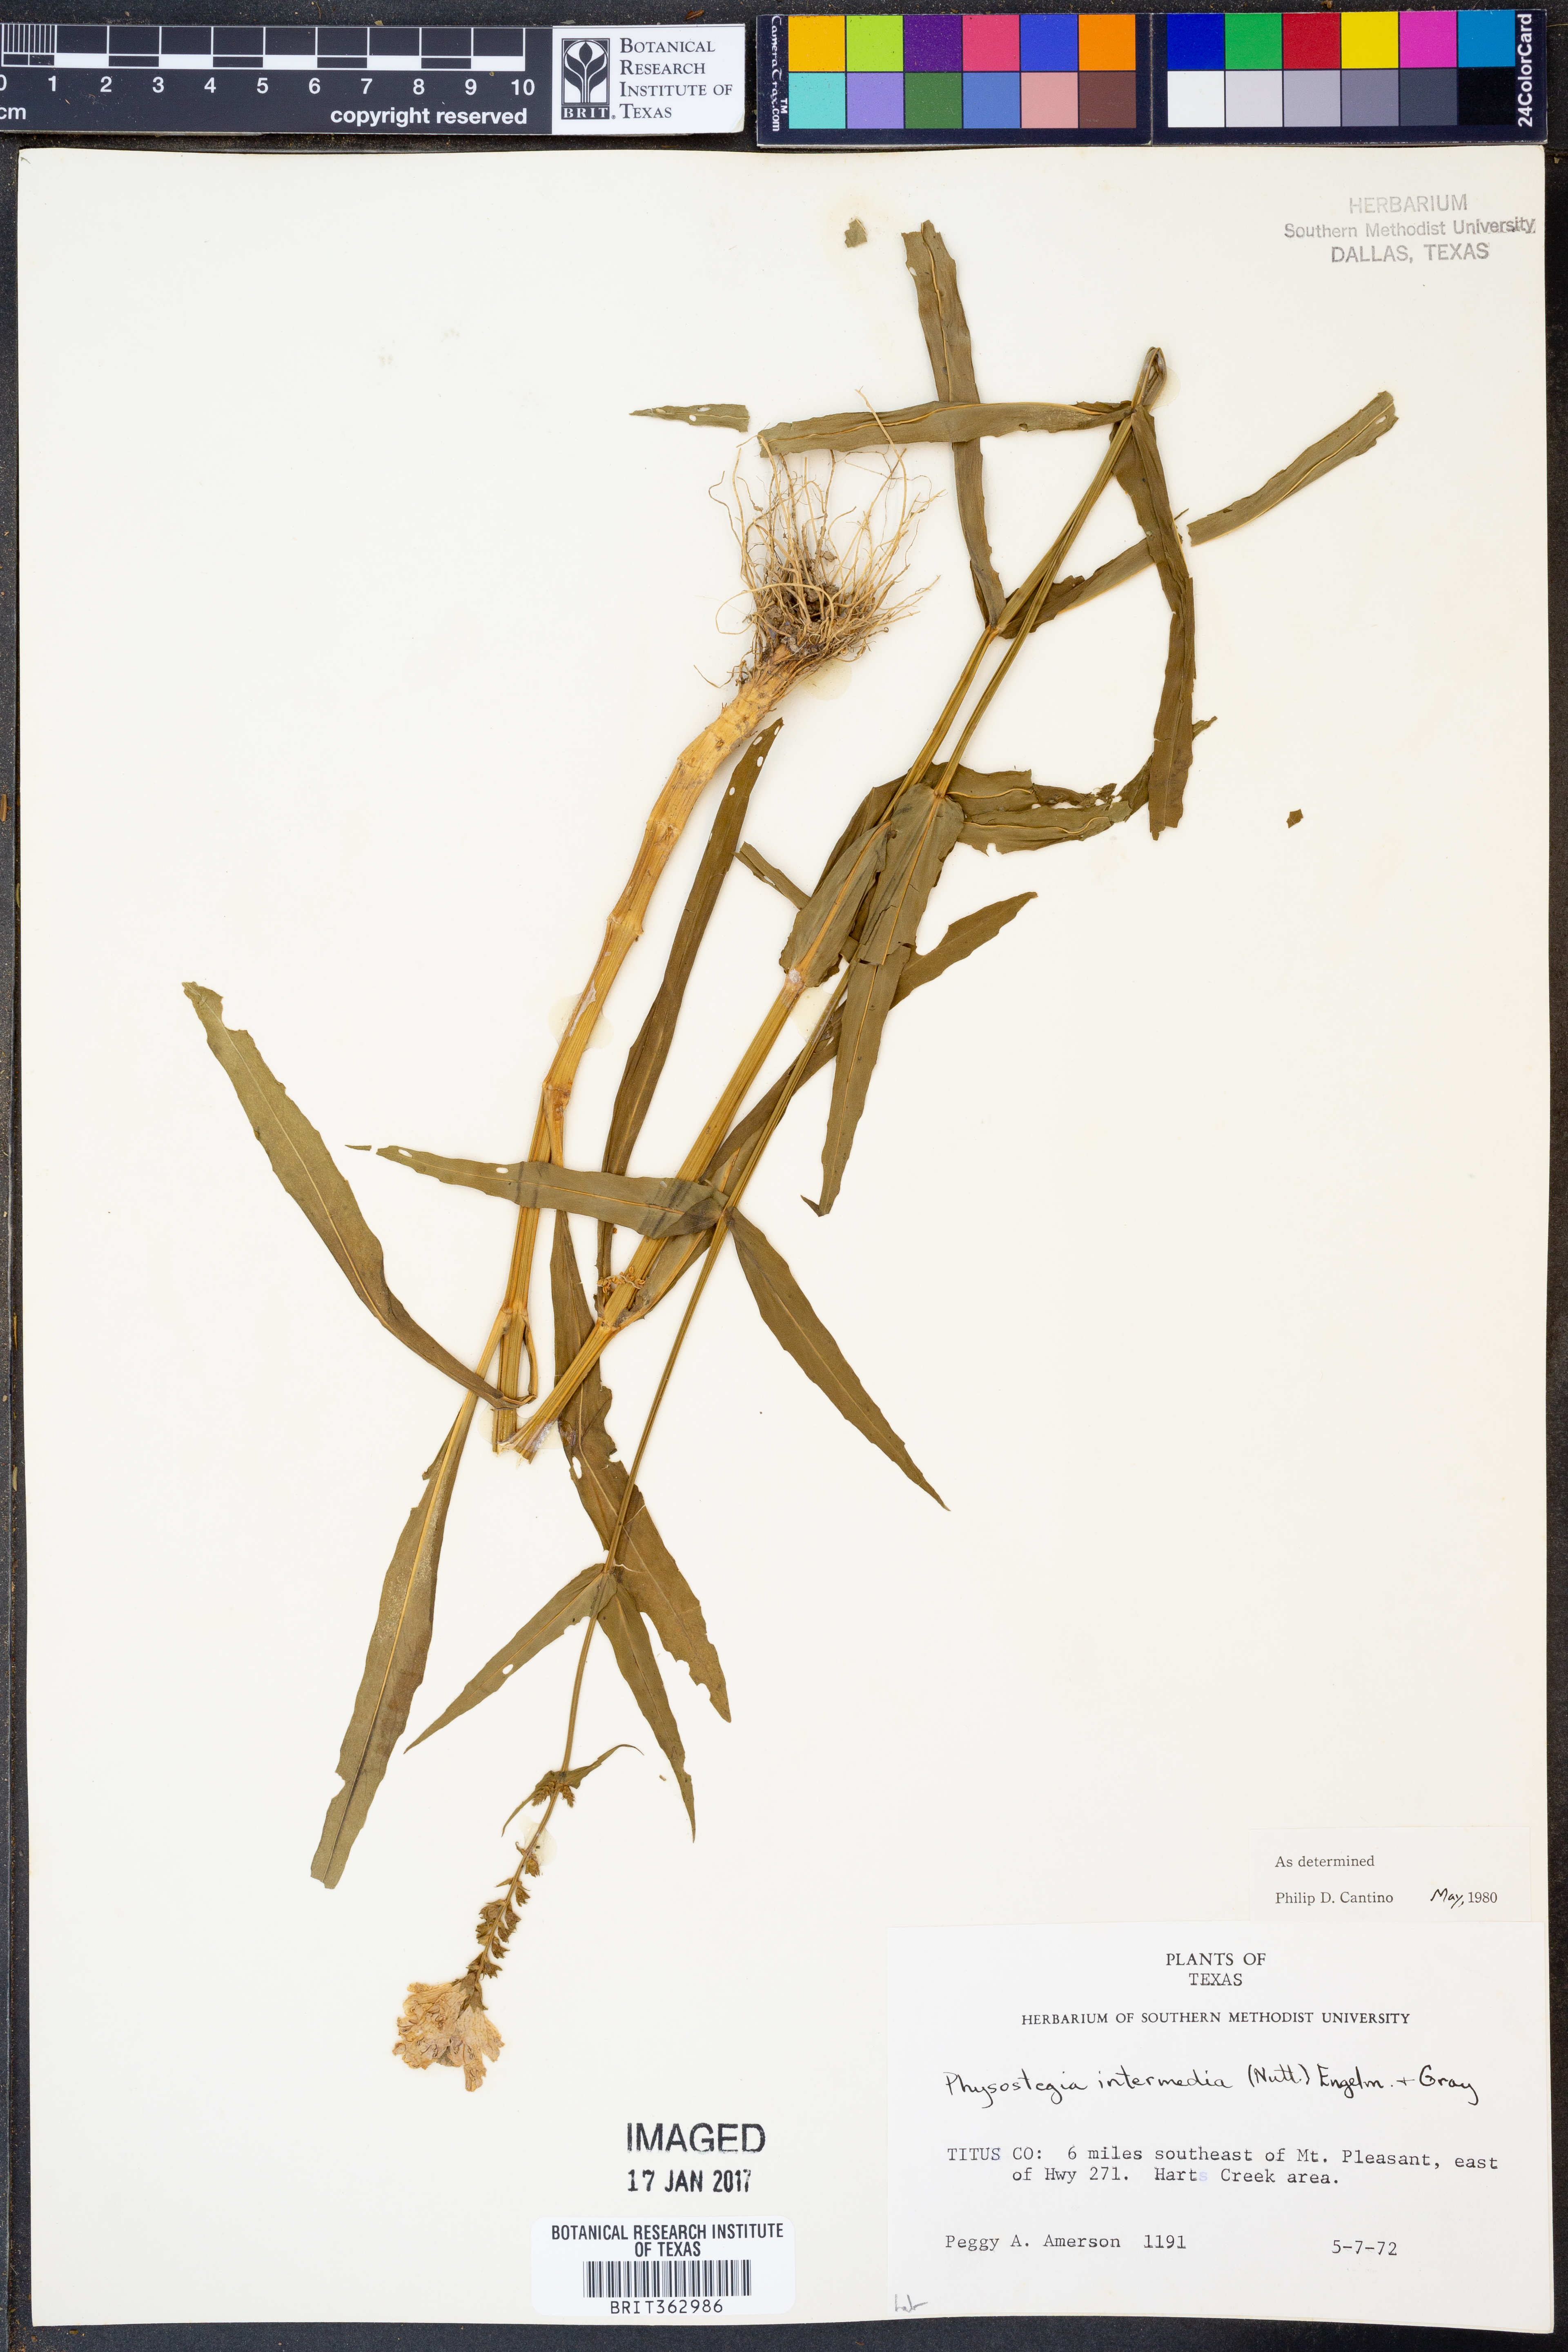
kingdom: Plantae
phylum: Tracheophyta
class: Magnoliopsida
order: Lamiales
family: Lamiaceae
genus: Physostegia
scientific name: Physostegia intermedia
